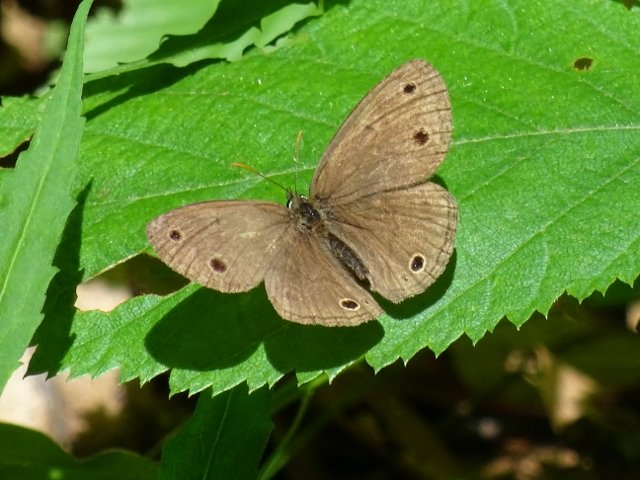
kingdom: Animalia
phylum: Arthropoda
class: Insecta
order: Lepidoptera
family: Nymphalidae
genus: Euptychia
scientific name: Euptychia cymela
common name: Little Wood Satyr
